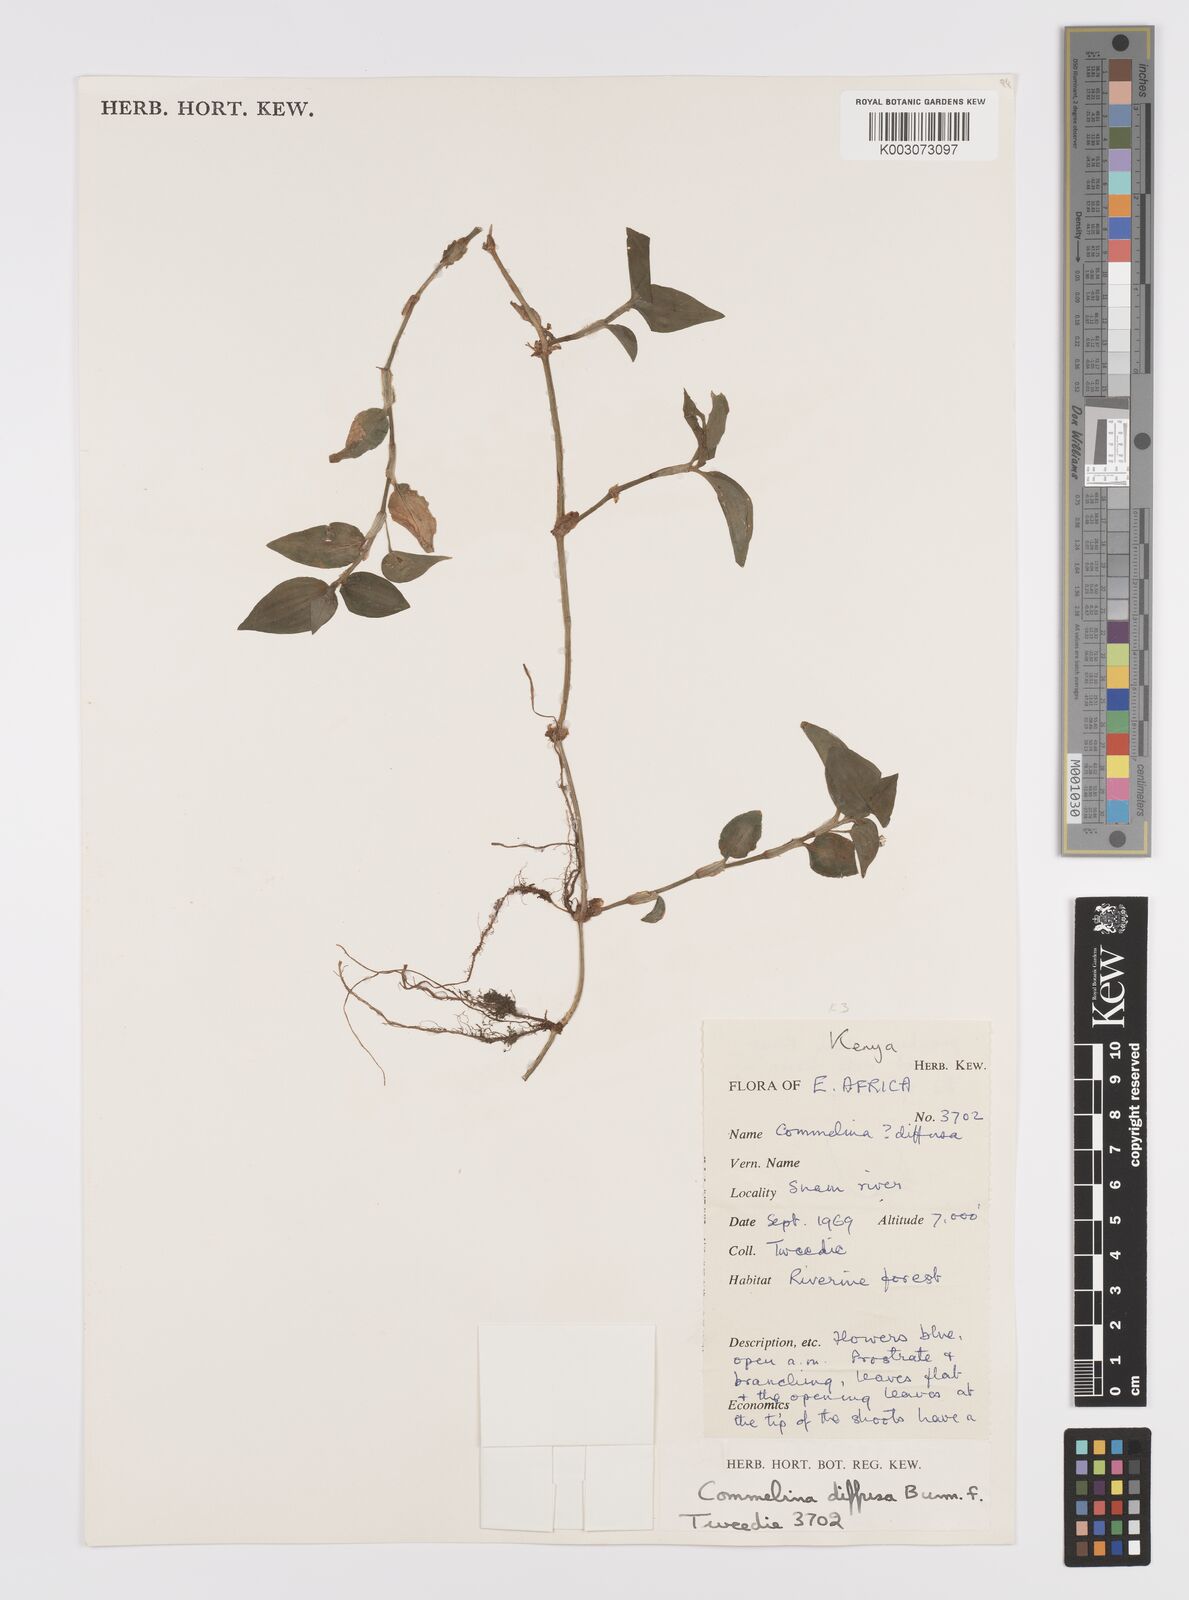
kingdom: Plantae
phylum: Tracheophyta
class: Liliopsida
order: Commelinales
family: Commelinaceae
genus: Commelina
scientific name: Commelina diffusa
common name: Climbing dayflower
